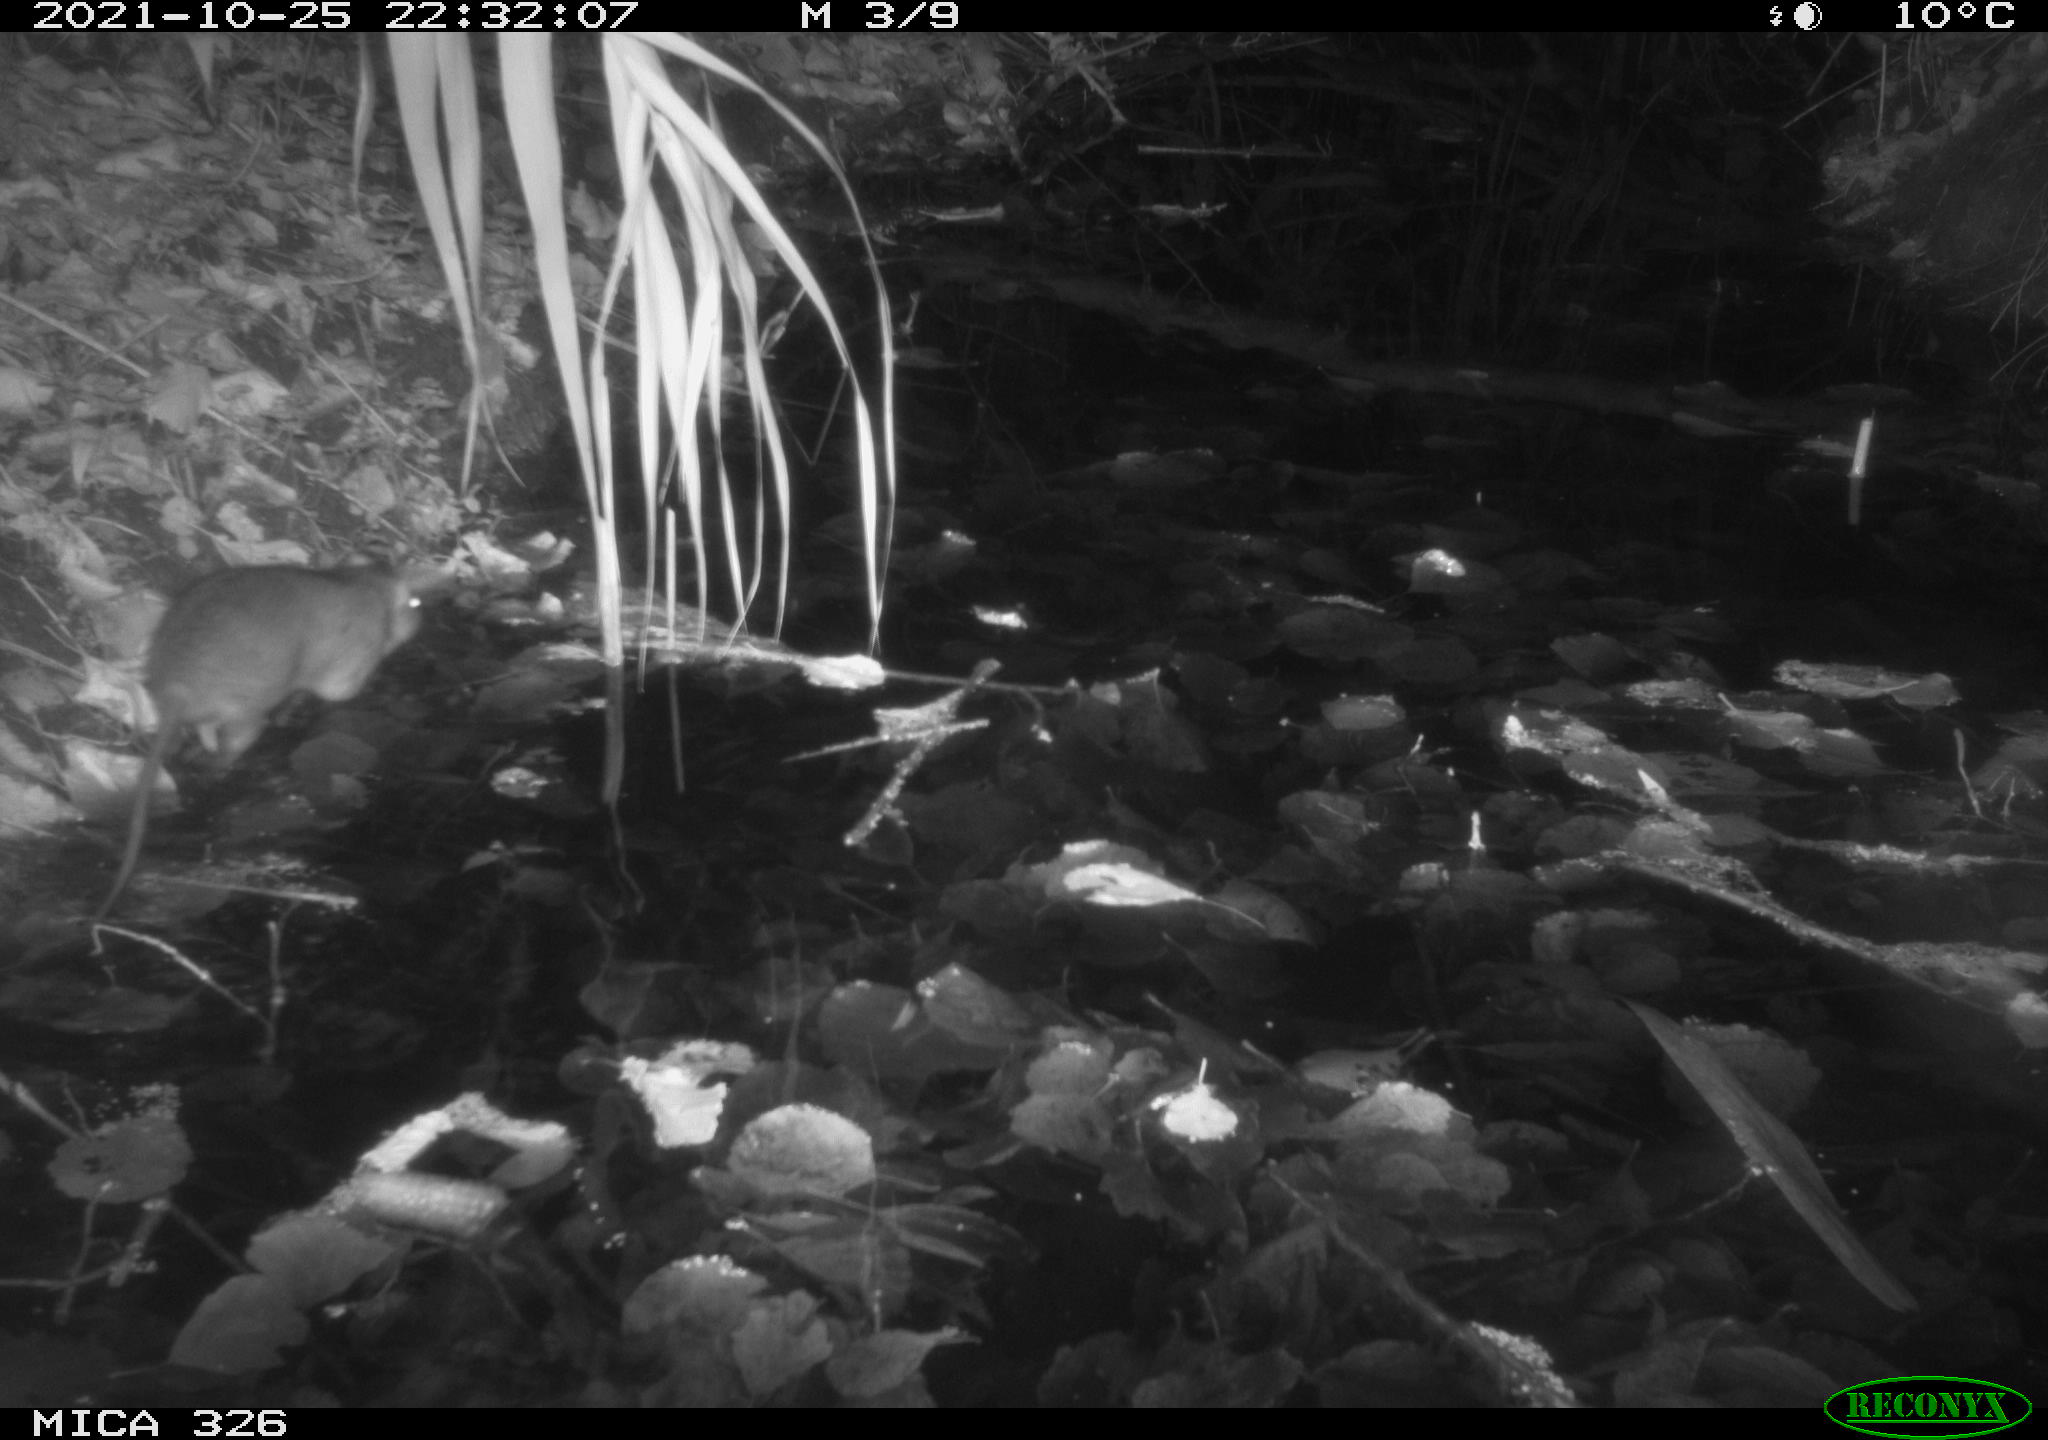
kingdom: Animalia
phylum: Chordata
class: Mammalia
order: Rodentia
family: Muridae
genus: Rattus
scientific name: Rattus norvegicus
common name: Brown rat
